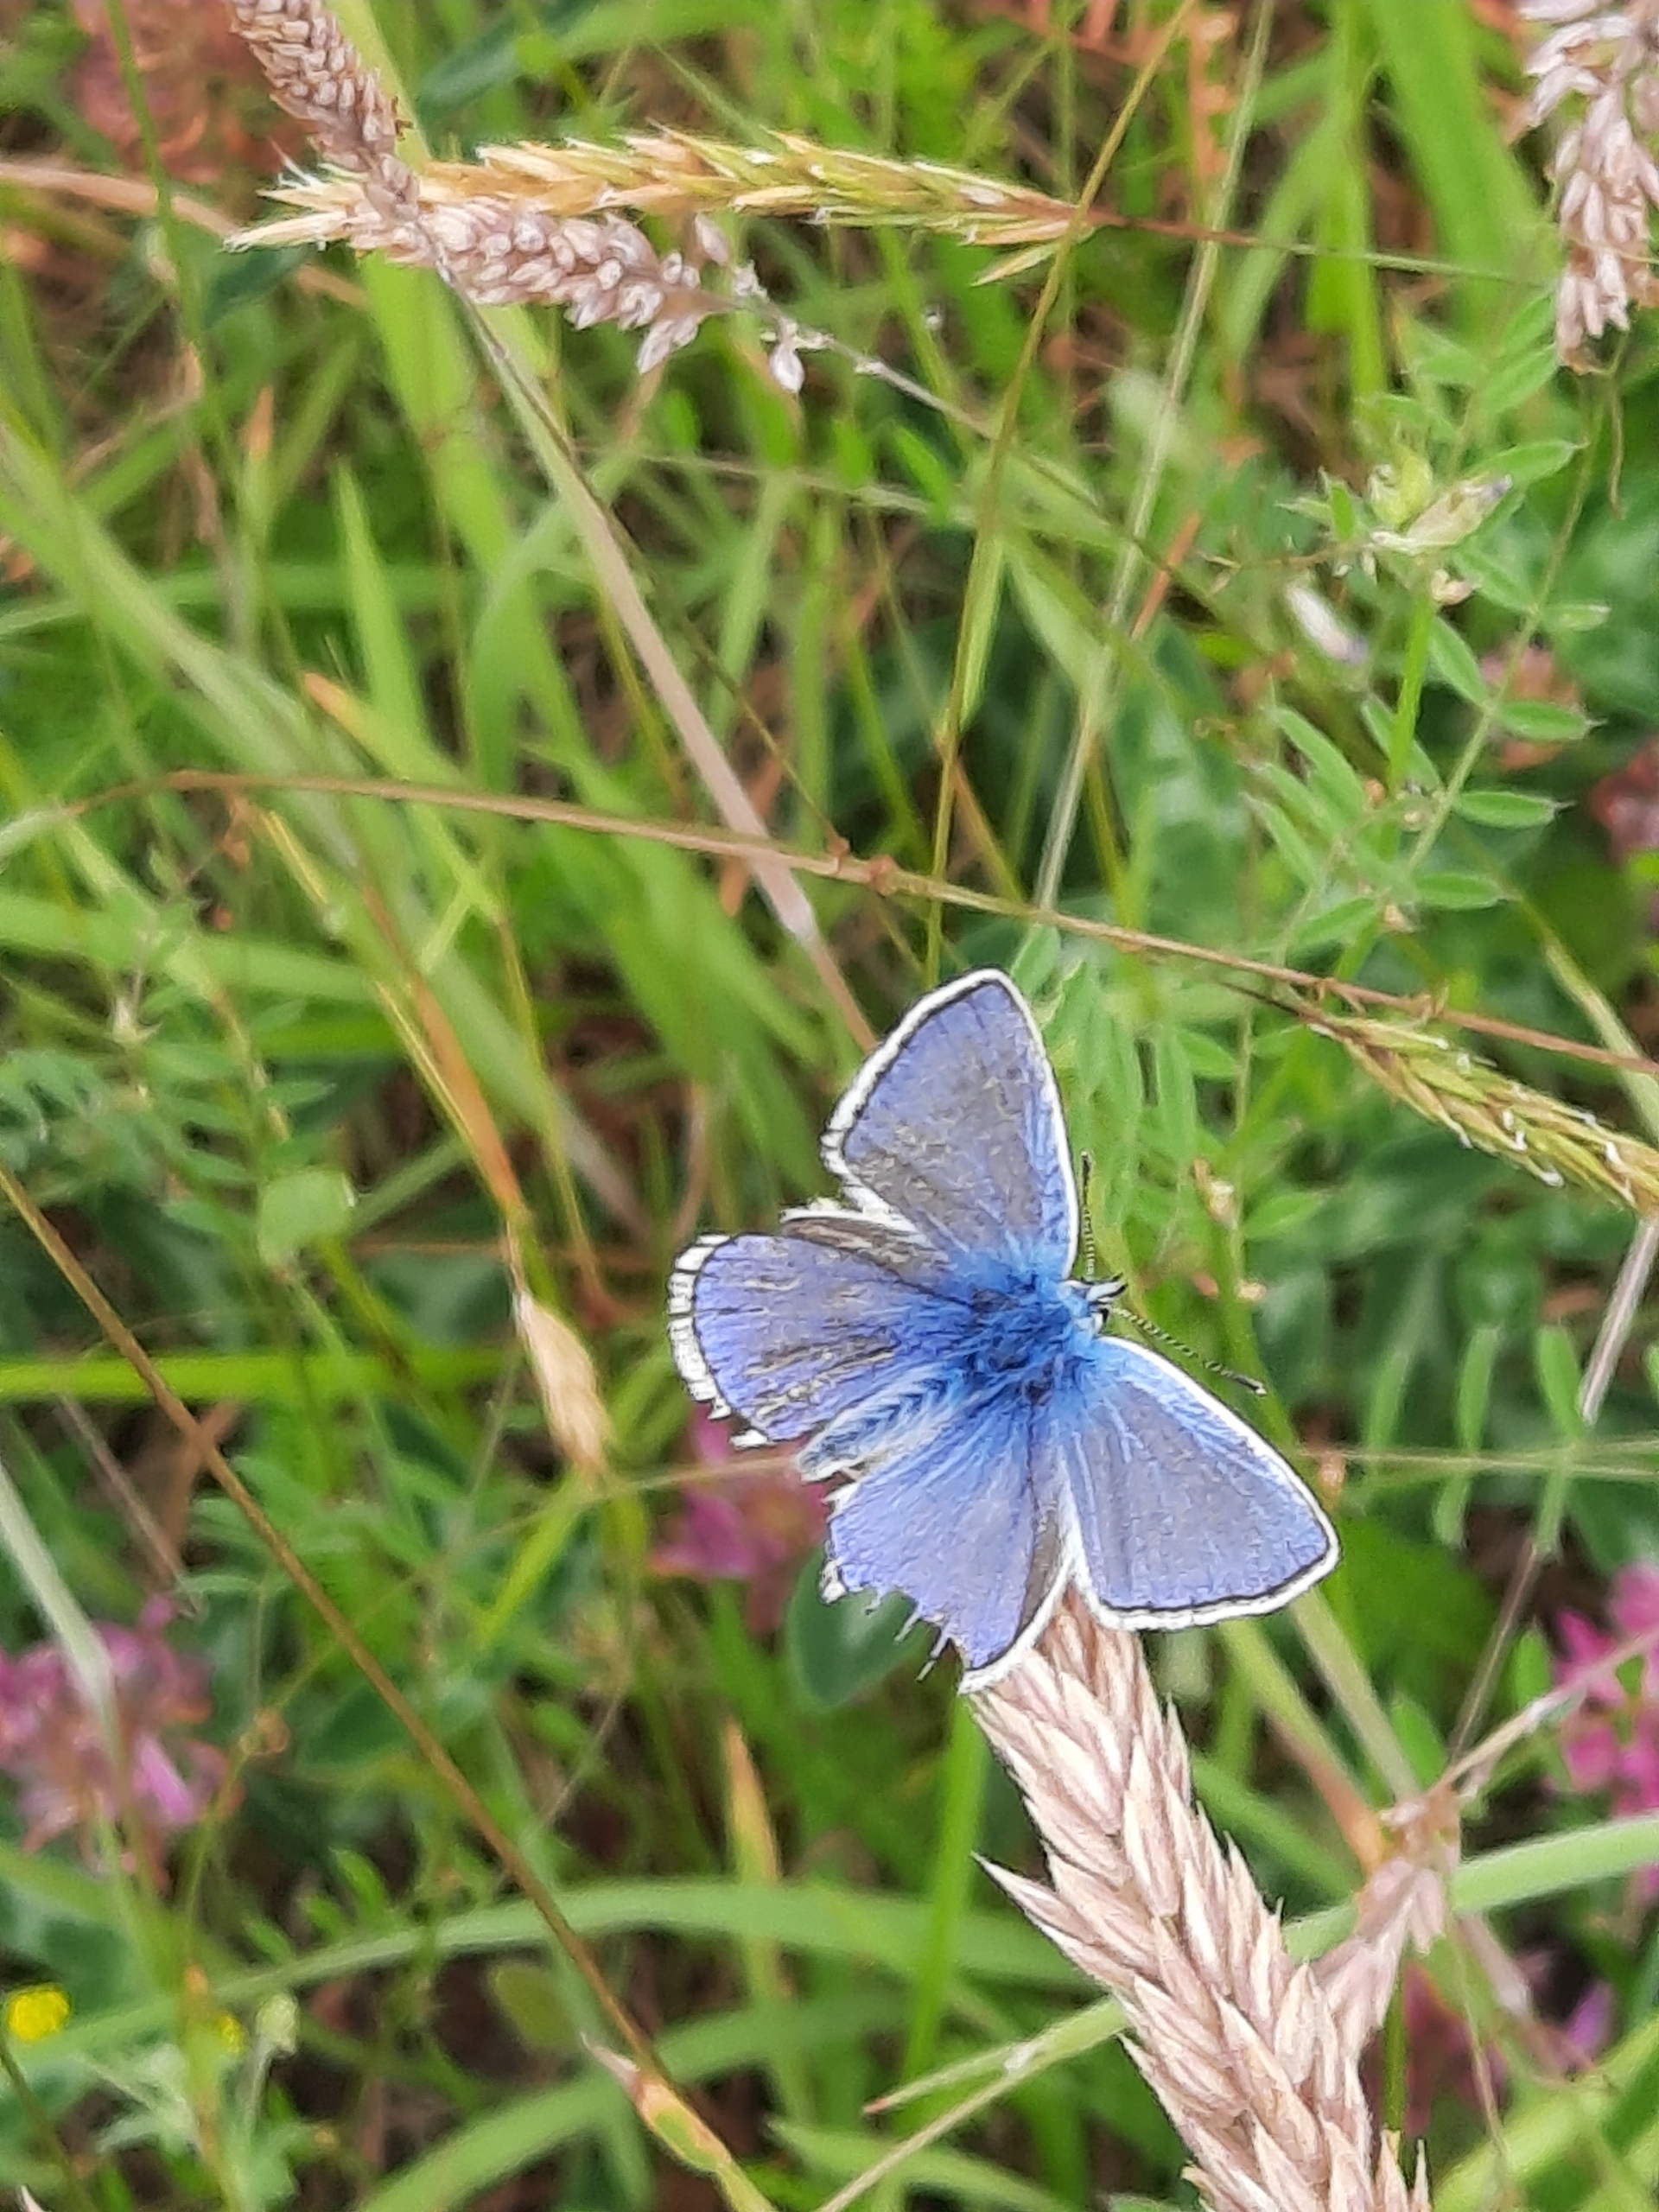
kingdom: Animalia
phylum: Arthropoda
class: Insecta
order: Lepidoptera
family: Lycaenidae
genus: Polyommatus
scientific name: Polyommatus icarus
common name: Almindelig blåfugl
